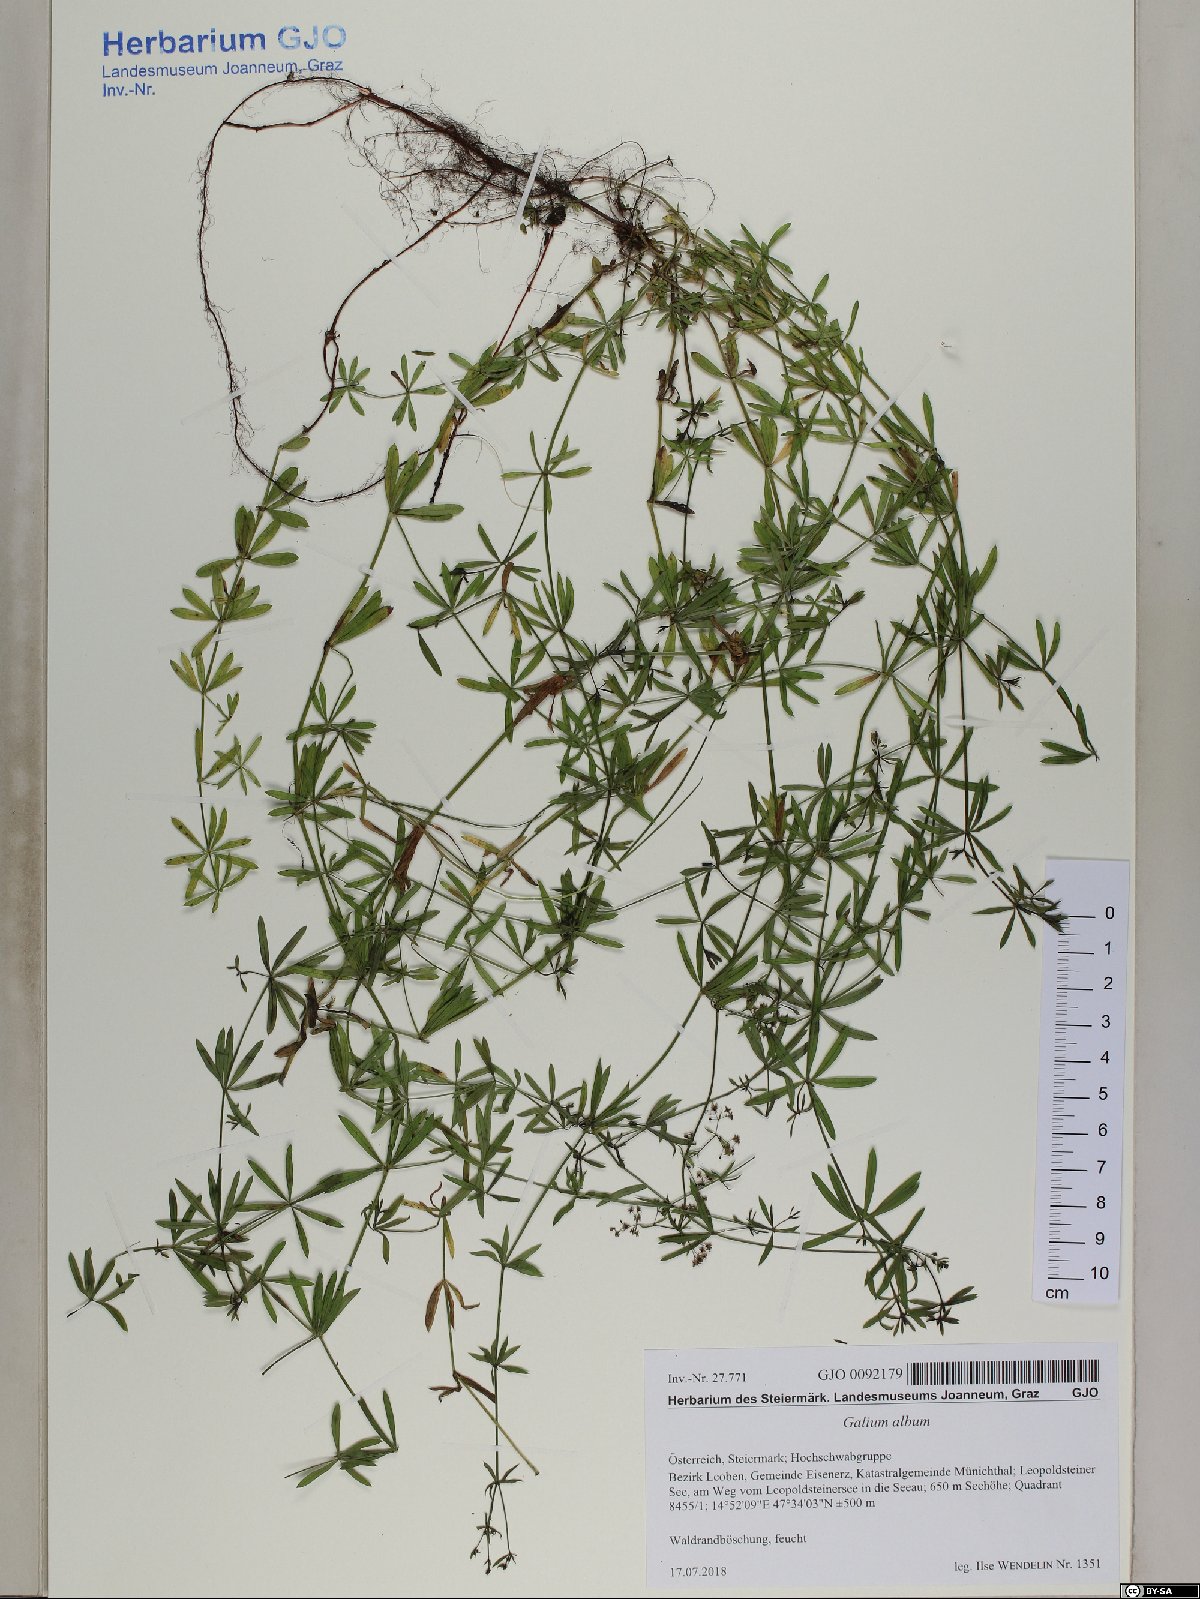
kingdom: Plantae
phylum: Tracheophyta
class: Magnoliopsida
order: Gentianales
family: Rubiaceae
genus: Galium
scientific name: Galium album
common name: White bedstraw
